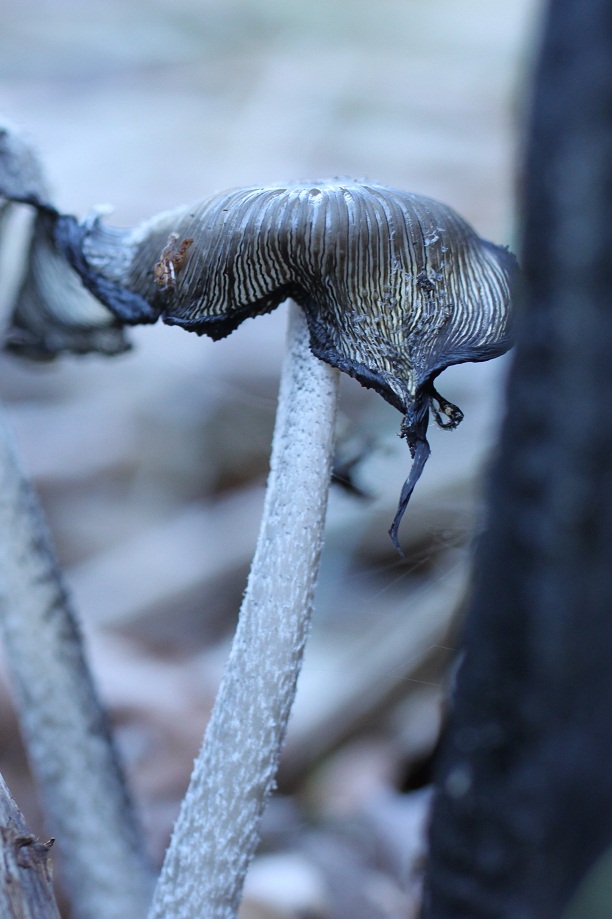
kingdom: Fungi
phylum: Basidiomycota
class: Agaricomycetes
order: Agaricales
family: Psathyrellaceae
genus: Coprinopsis
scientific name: Coprinopsis jonesii
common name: spættet blækhat
